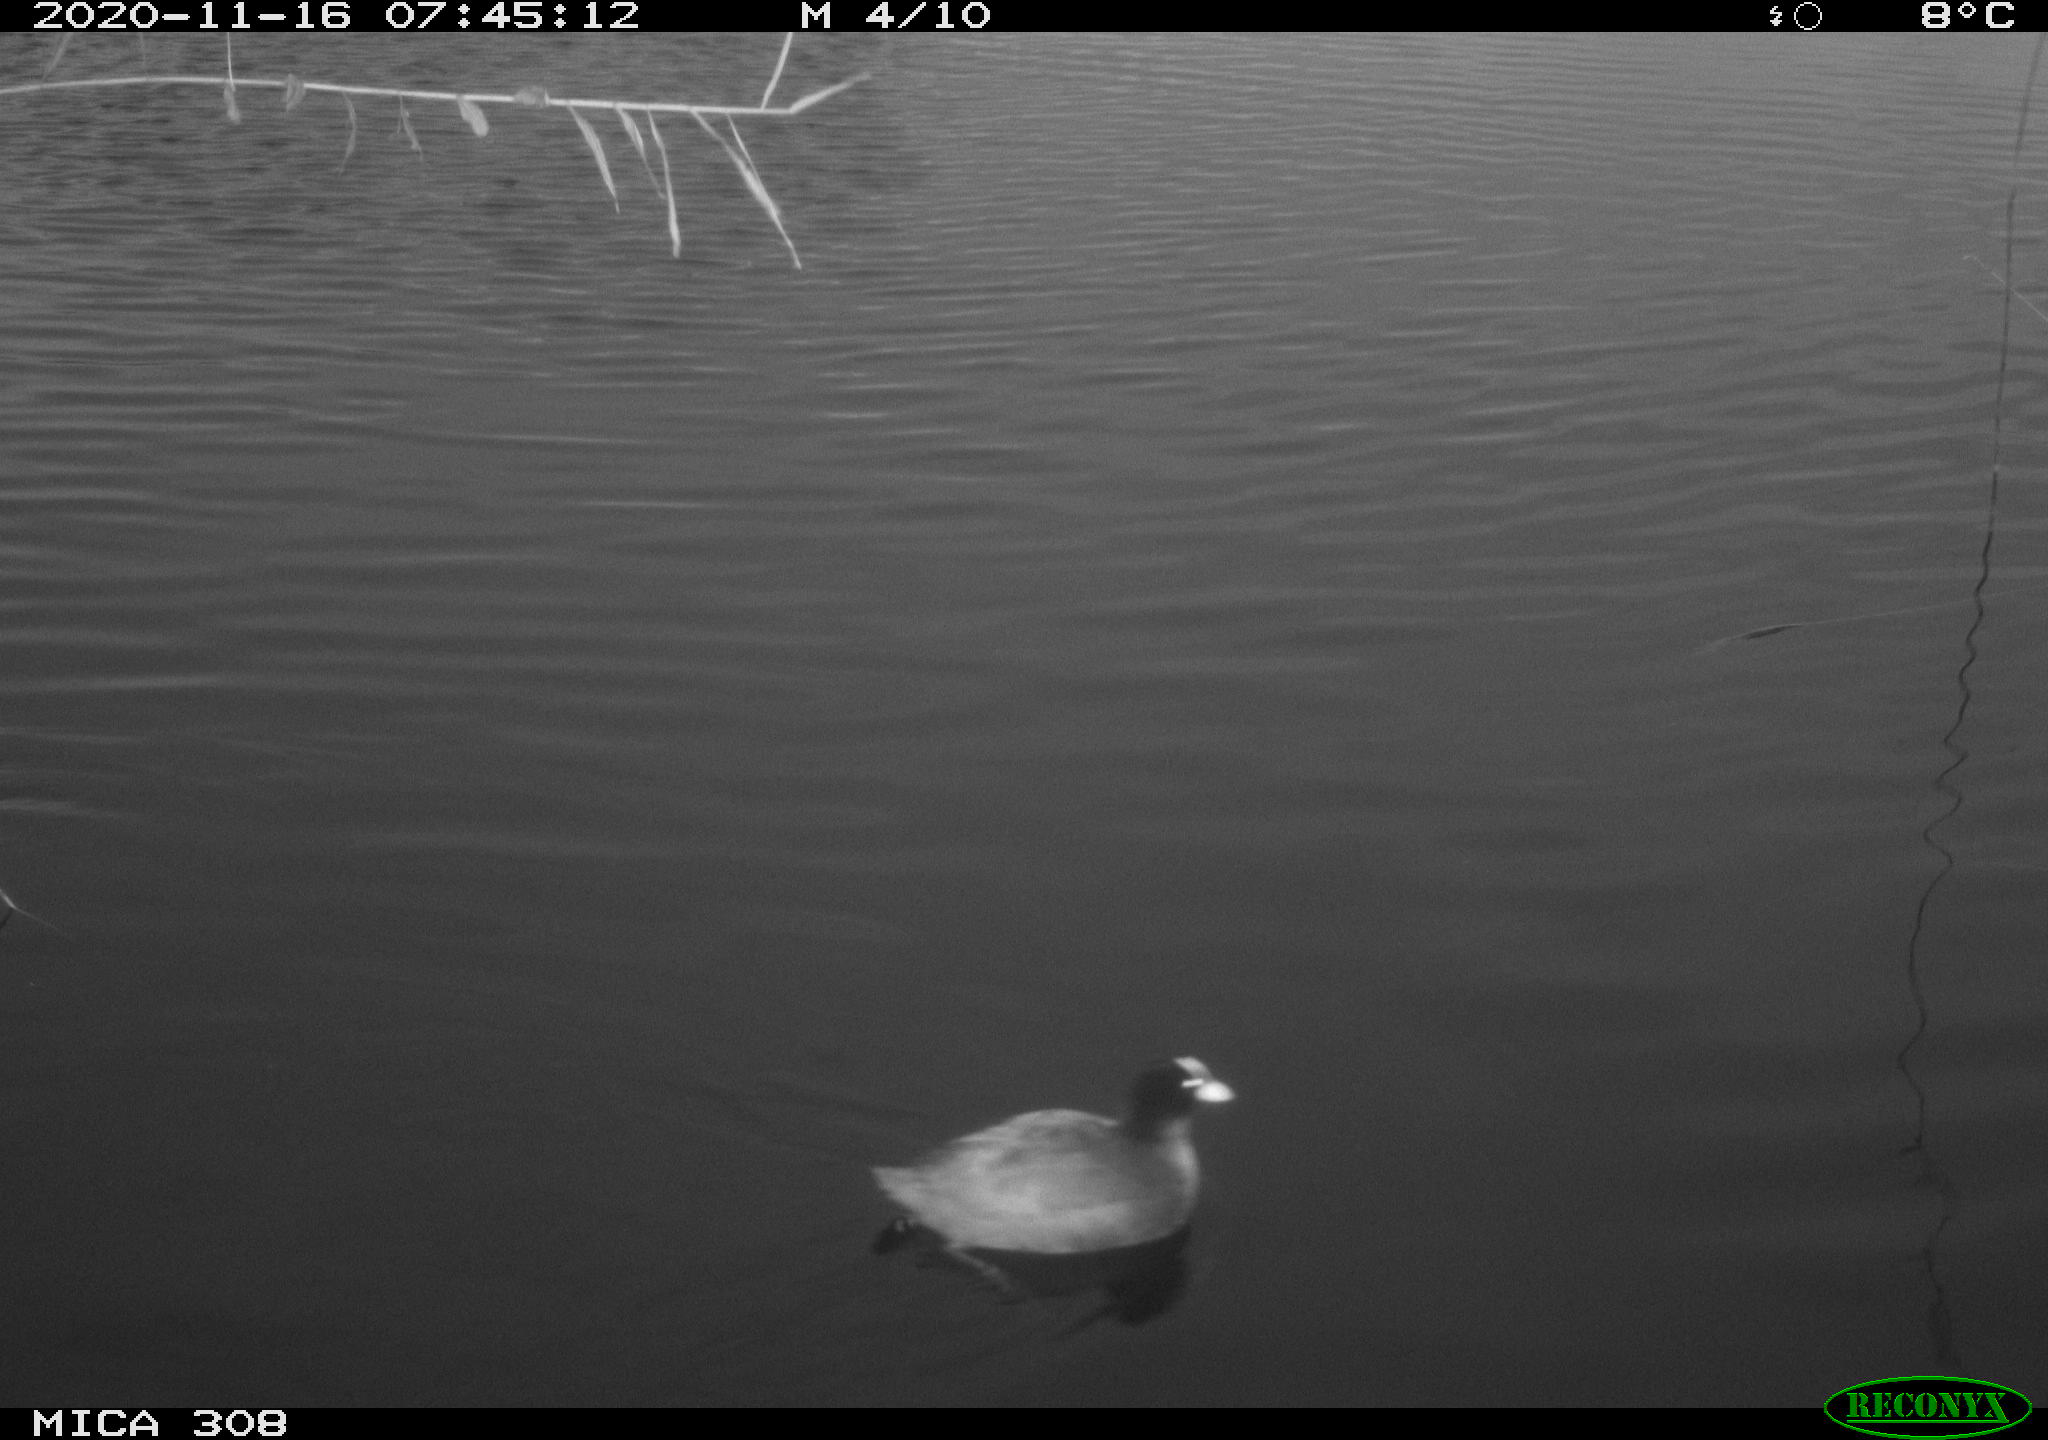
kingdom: Animalia
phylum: Chordata
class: Aves
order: Gruiformes
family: Rallidae
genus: Gallinula
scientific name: Gallinula chloropus
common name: Common moorhen
